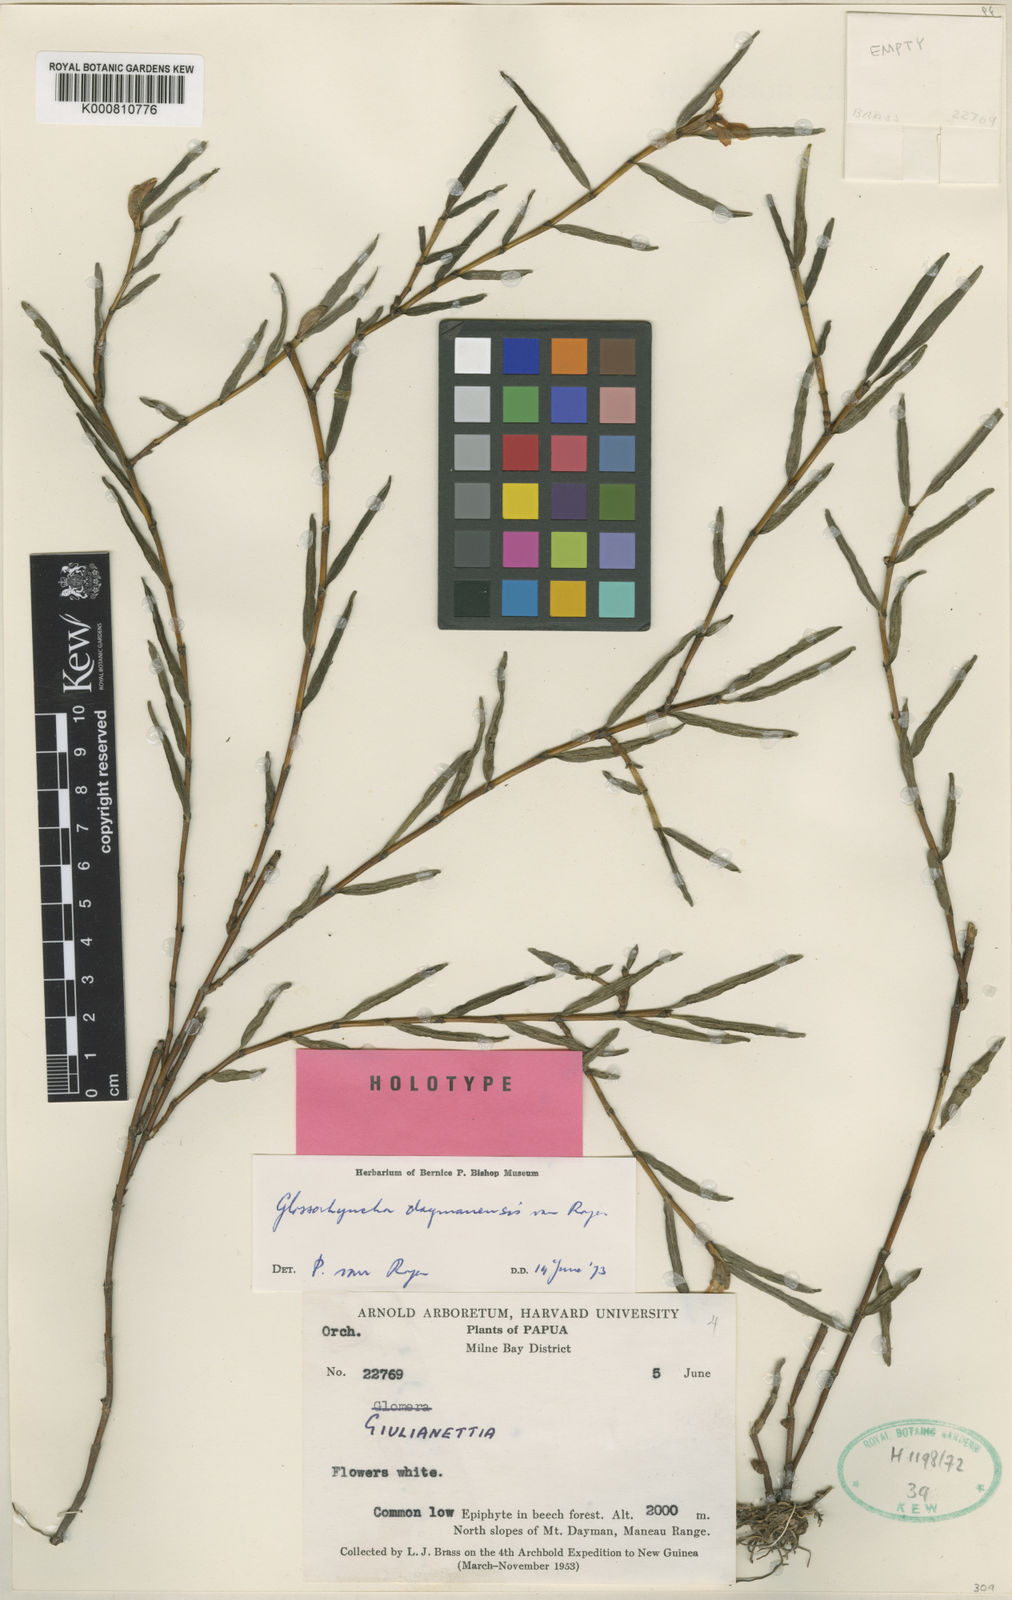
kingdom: Plantae
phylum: Tracheophyta
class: Liliopsida
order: Asparagales
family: Orchidaceae
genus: Glomera
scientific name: Glomera hamadryas
